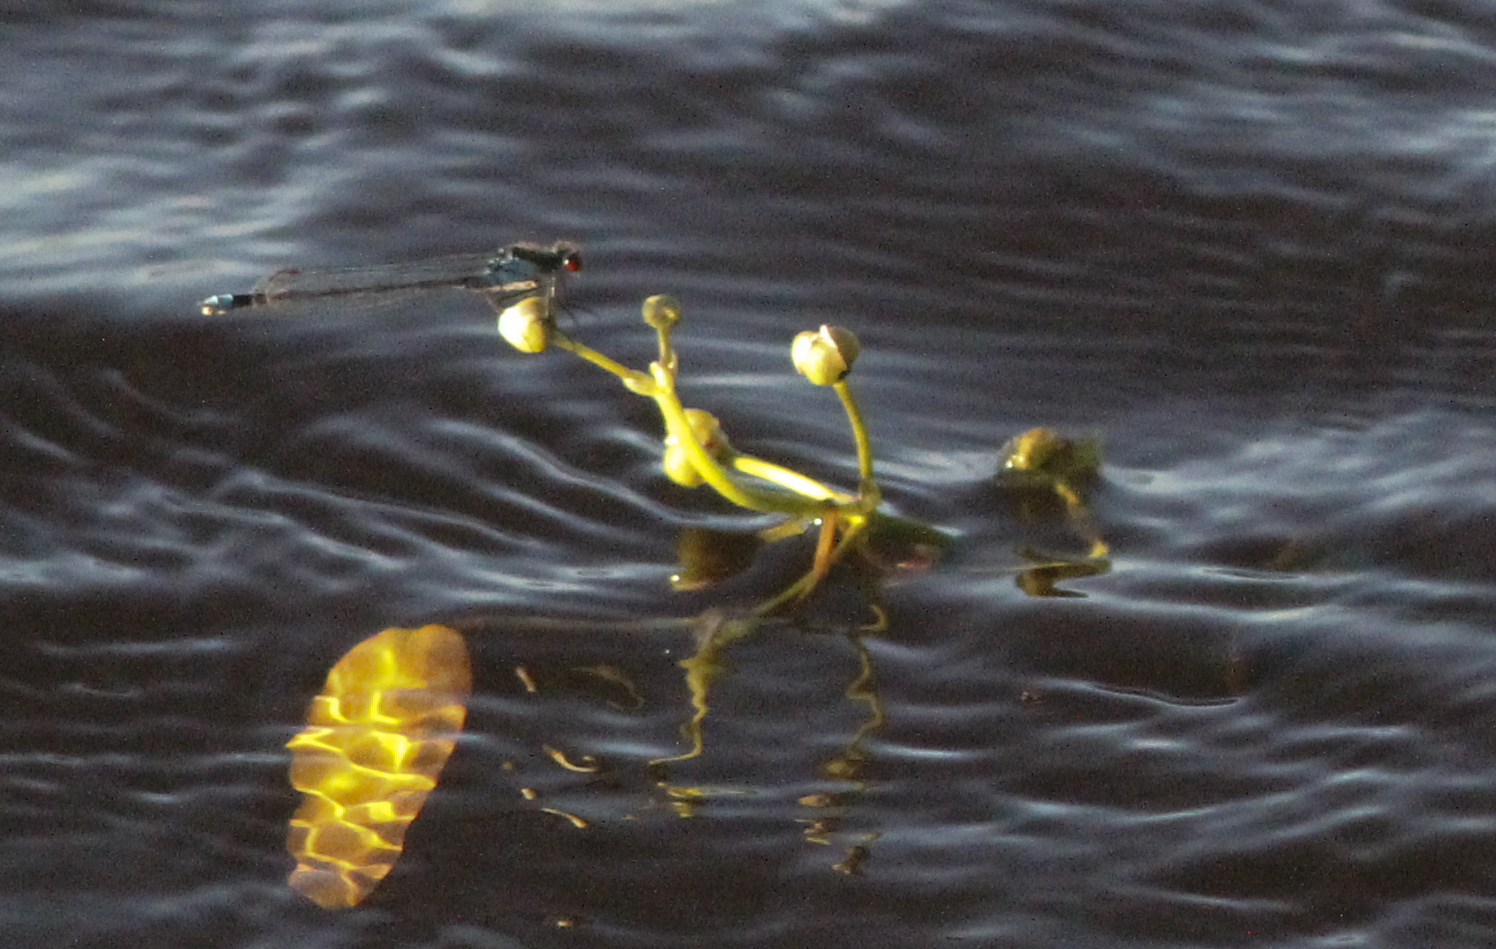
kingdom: Plantae
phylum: Tracheophyta
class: Liliopsida
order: Alismatales
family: Alismataceae
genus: Sagittaria
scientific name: Sagittaria sagittifolia
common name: Arrowhead
